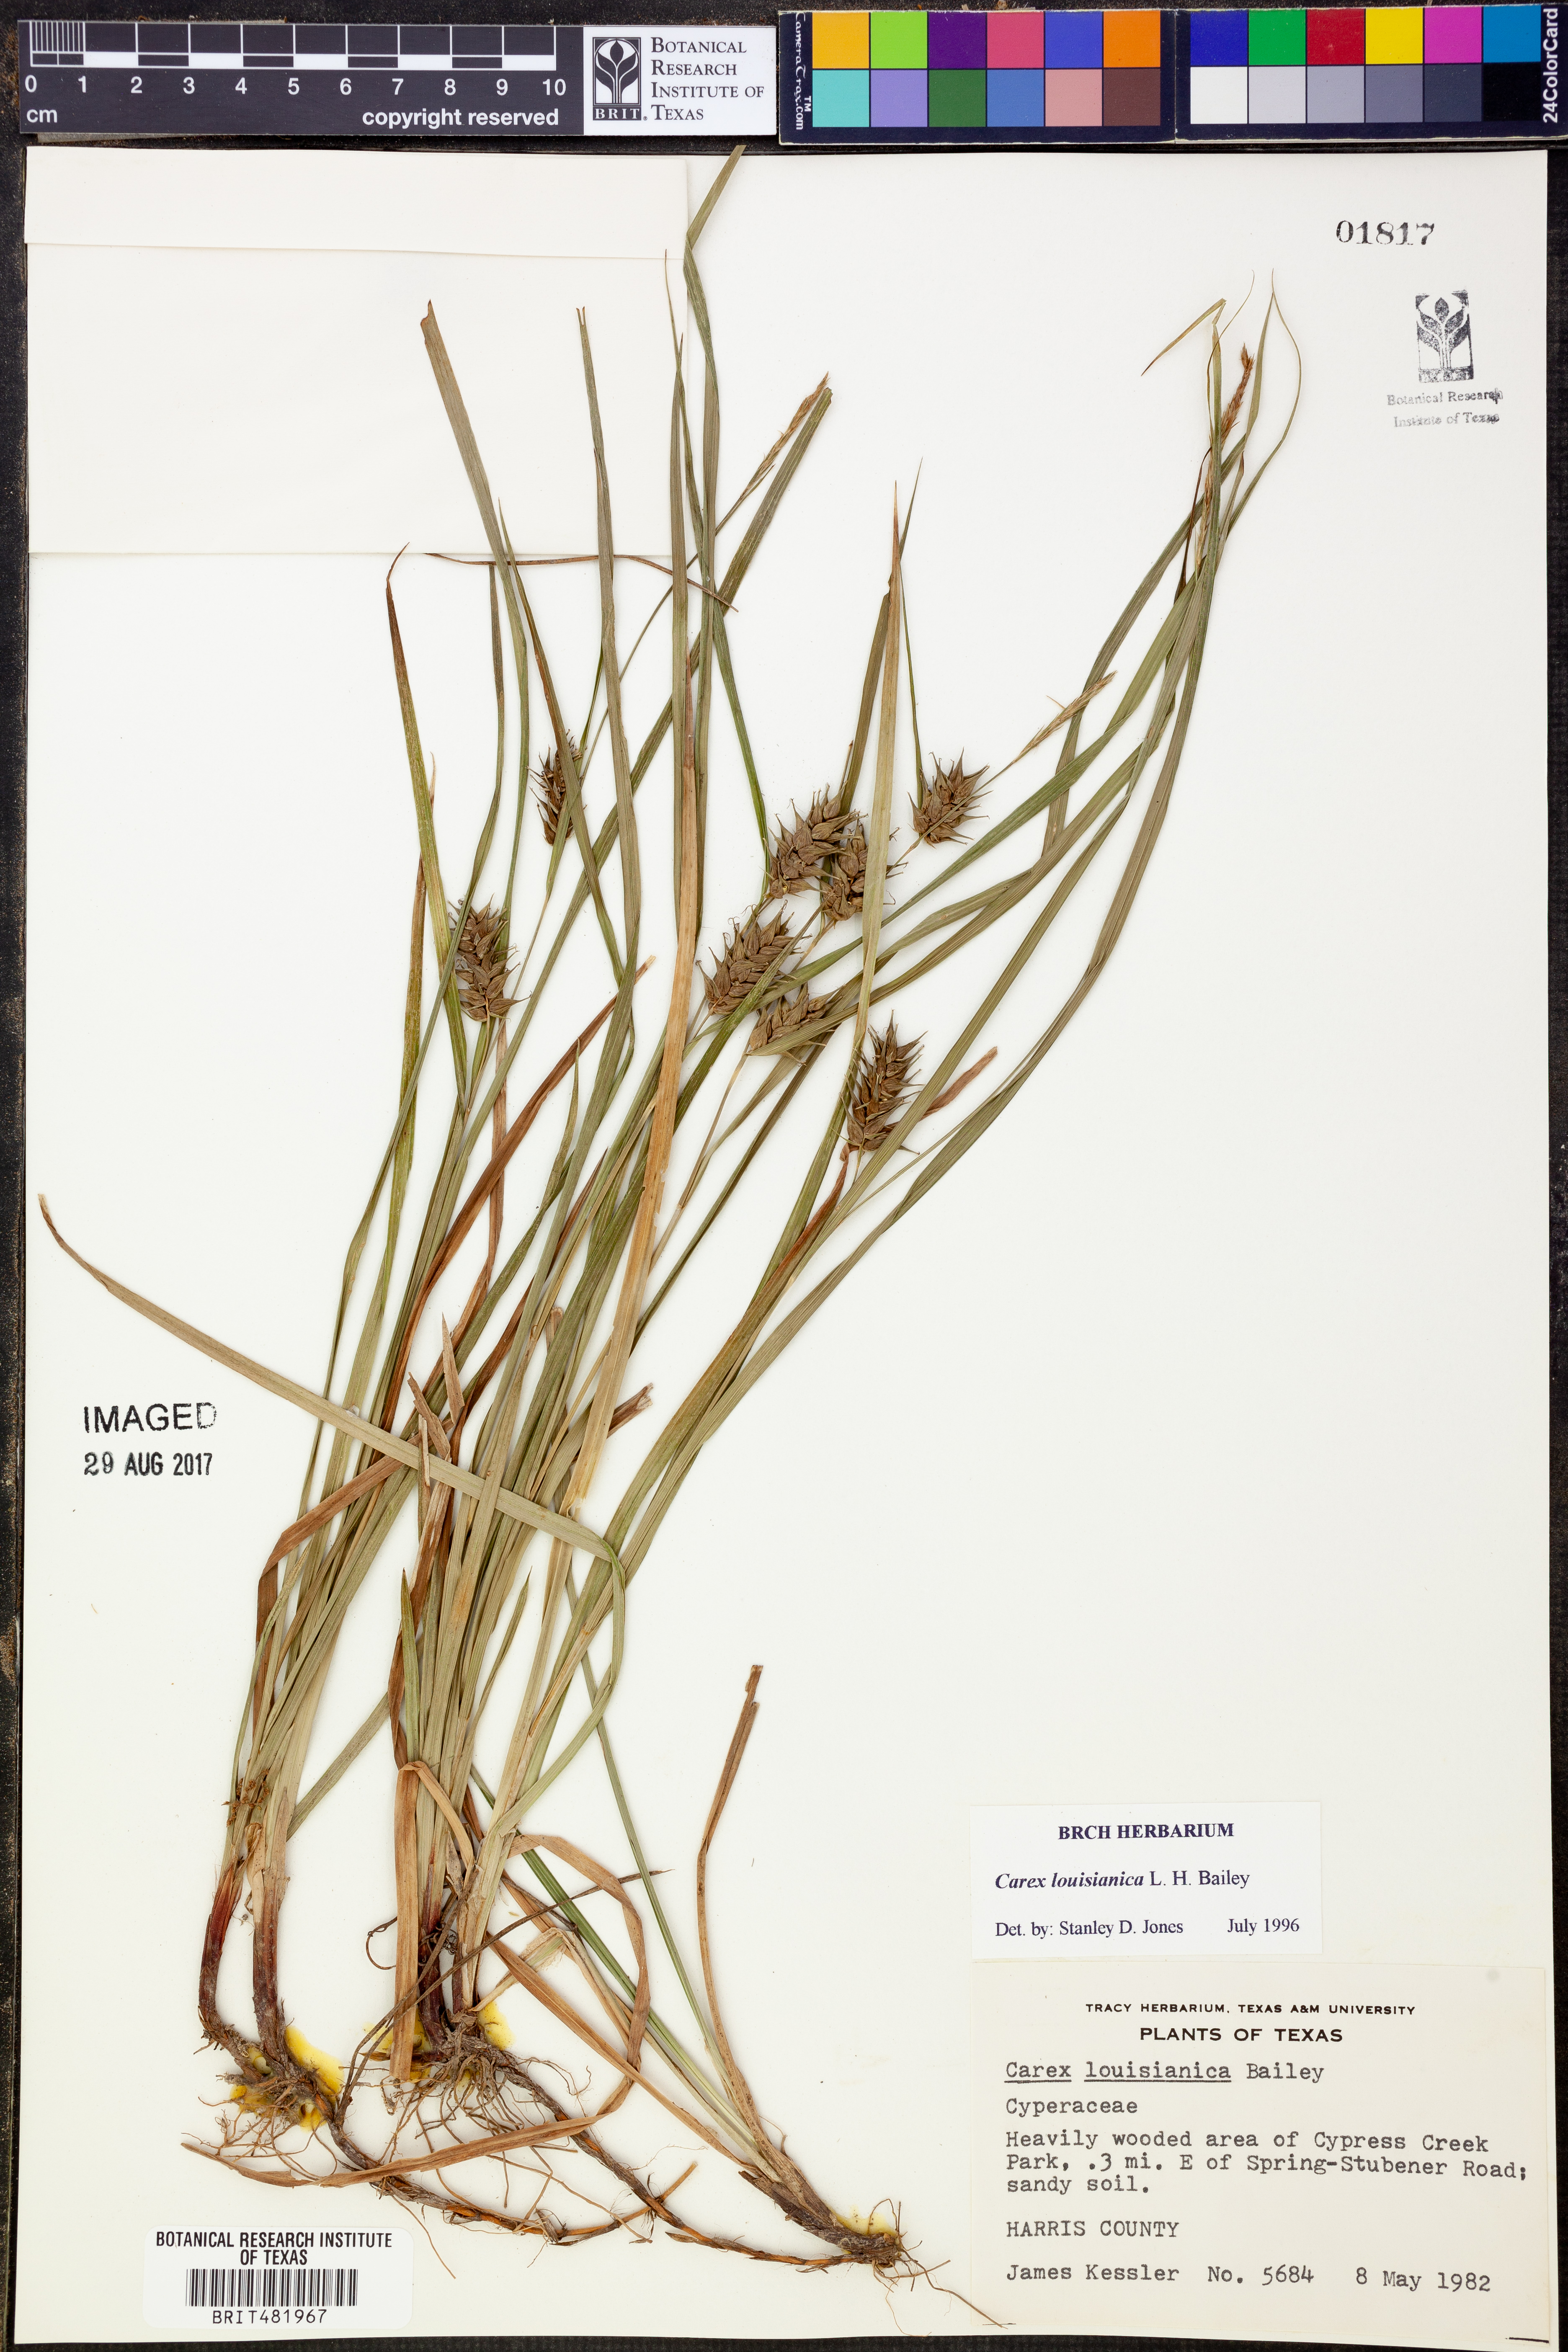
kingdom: Plantae
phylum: Tracheophyta
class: Liliopsida
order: Poales
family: Cyperaceae
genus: Carex
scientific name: Carex louisianica
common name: Louisiana sedge
